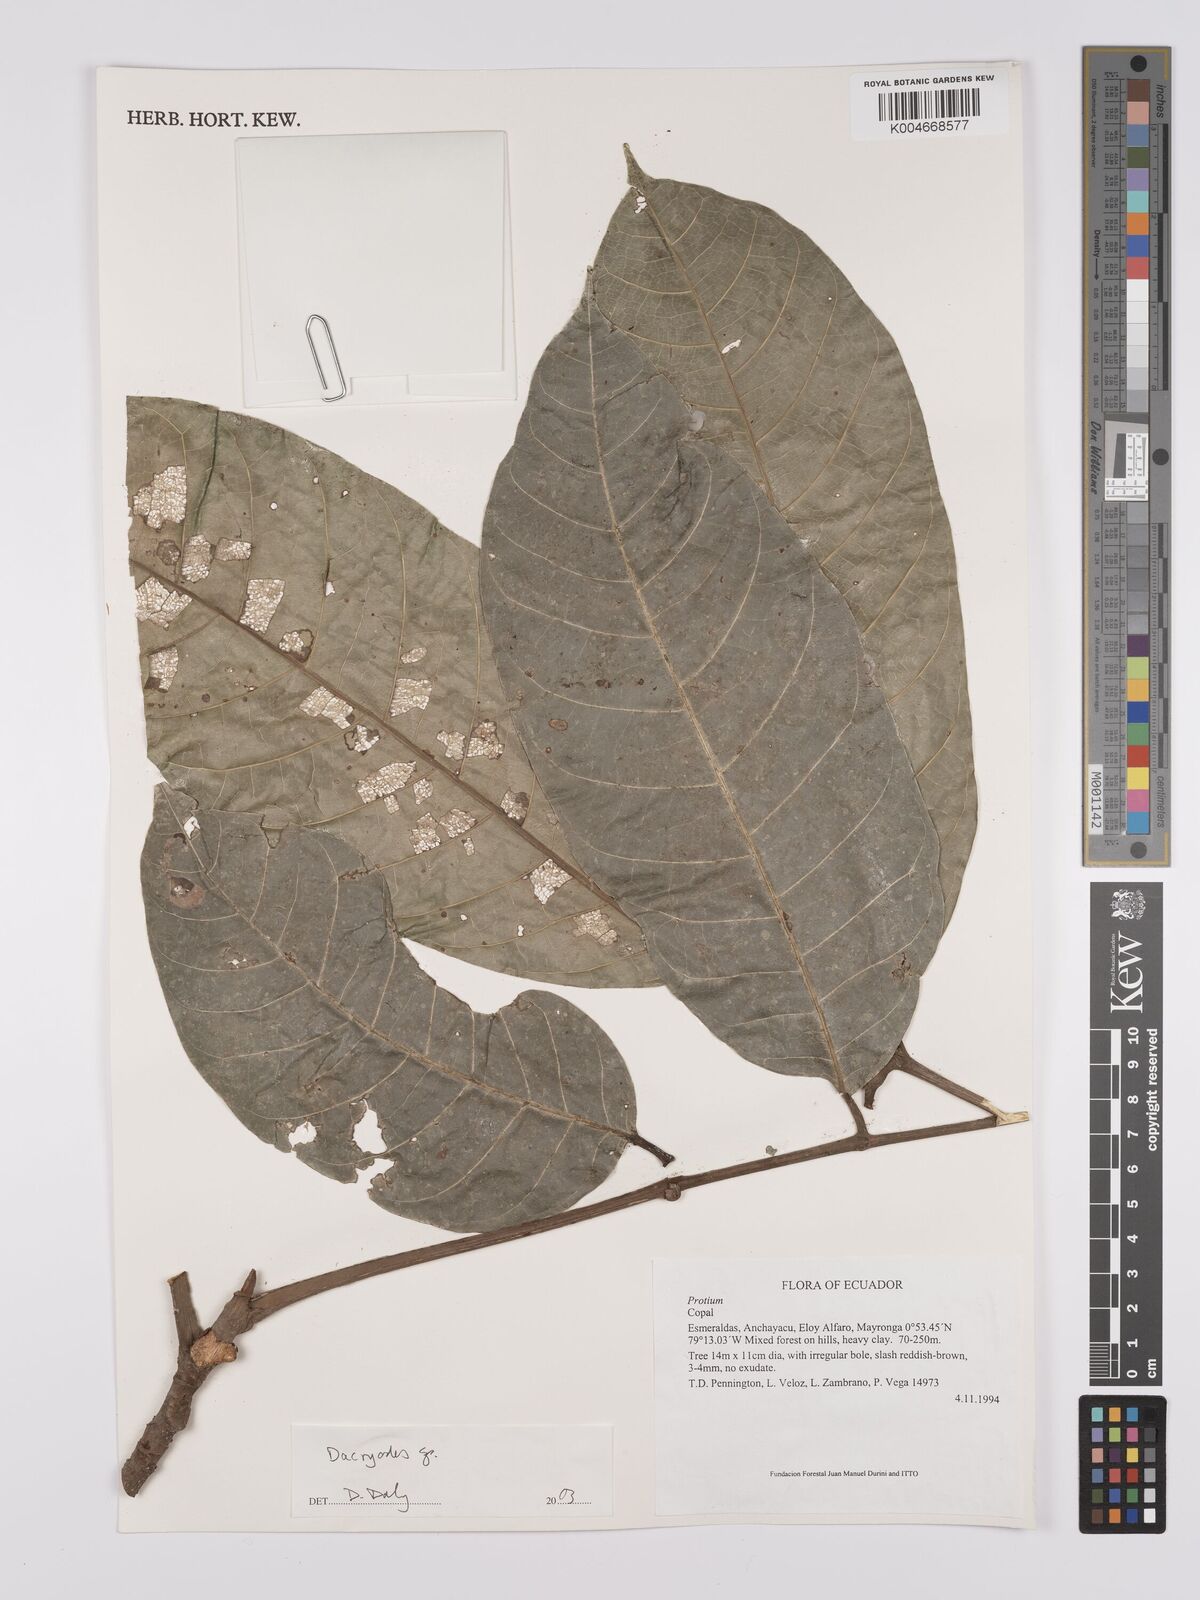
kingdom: Plantae
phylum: Tracheophyta
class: Magnoliopsida
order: Sapindales
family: Burseraceae
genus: Dacryodes
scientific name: Dacryodes
